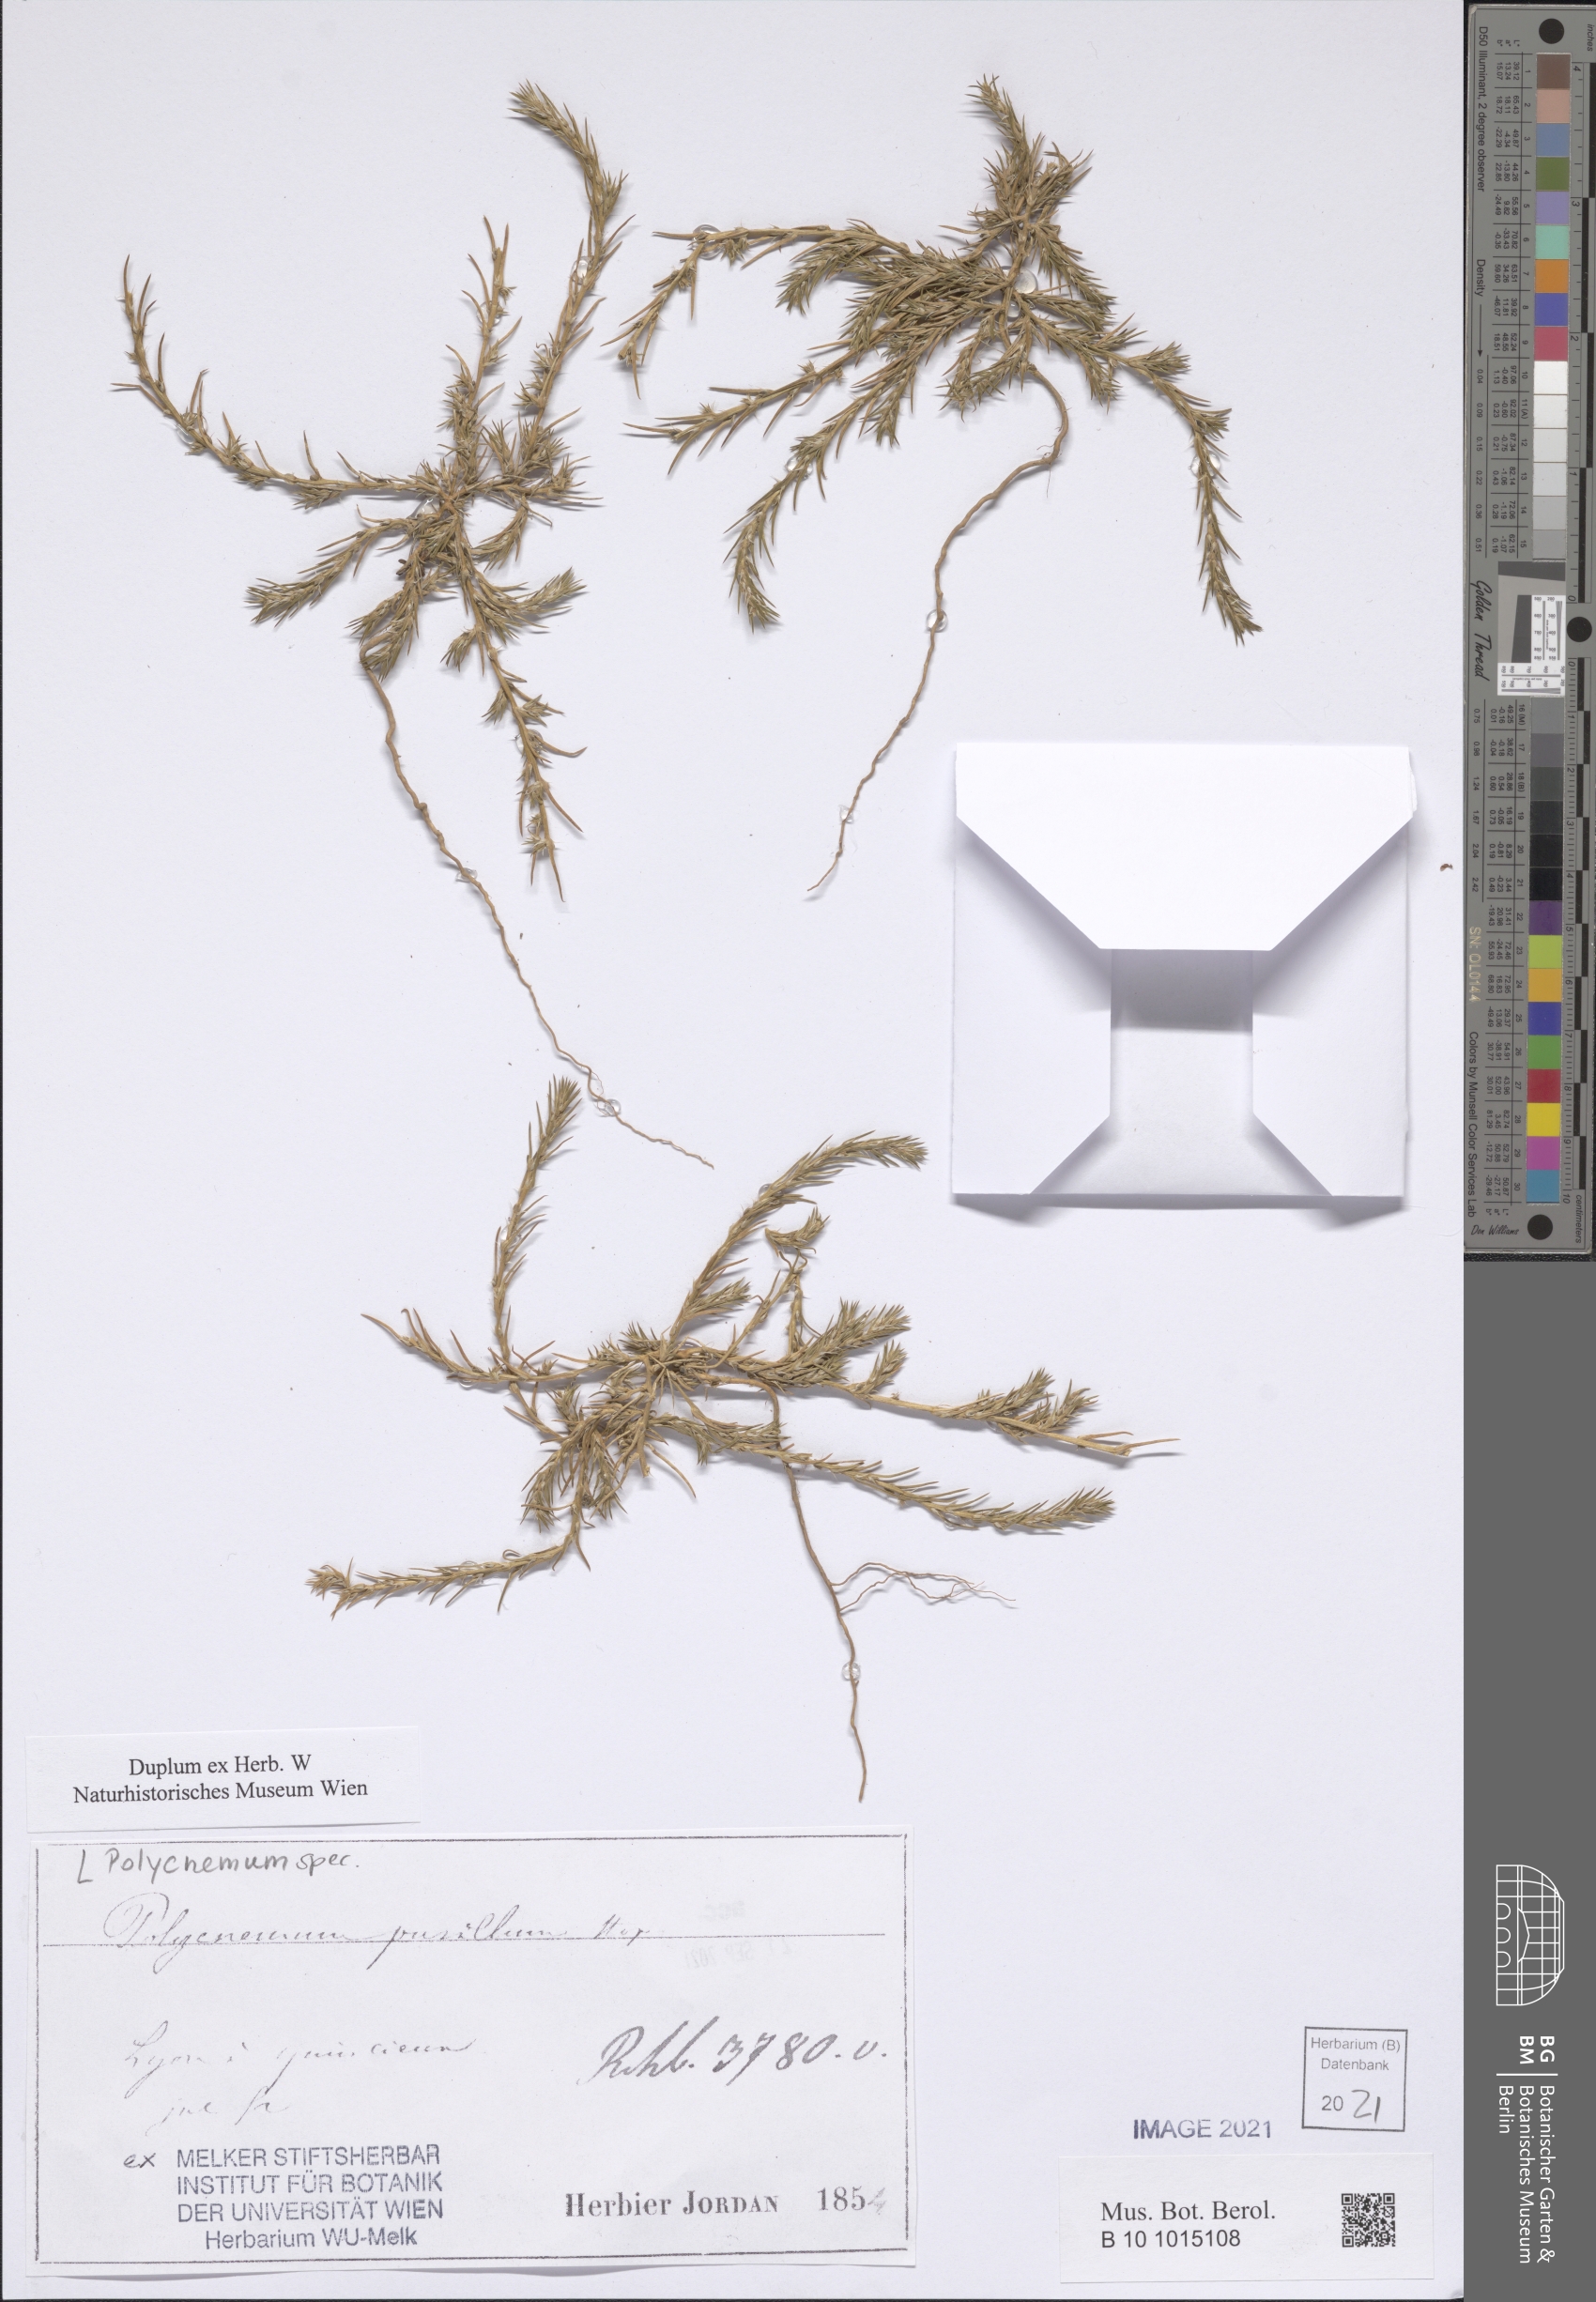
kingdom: Plantae
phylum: Tracheophyta
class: Magnoliopsida
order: Caryophyllales
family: Amaranthaceae
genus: Polycnemum
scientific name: Polycnemum
